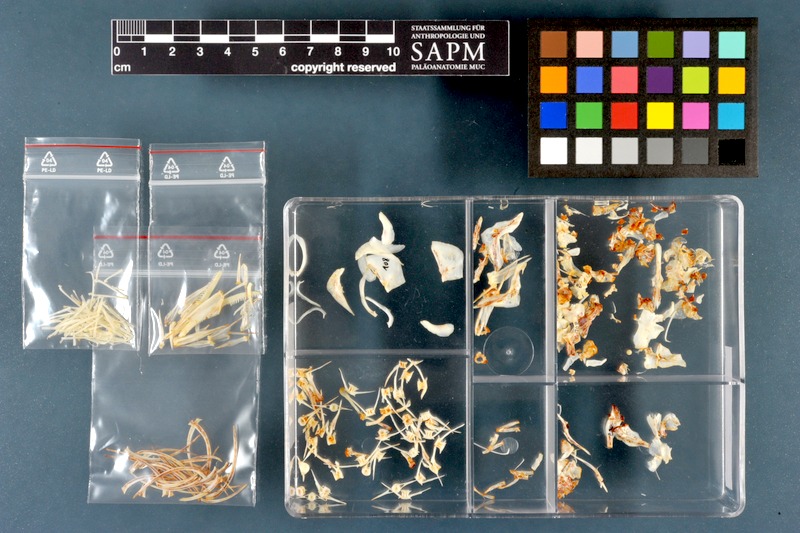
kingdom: Animalia
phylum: Chordata
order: Cypriniformes
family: Cyprinidae
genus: Cyprinion
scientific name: Cyprinion macrostomum
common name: Largemouth lotak
